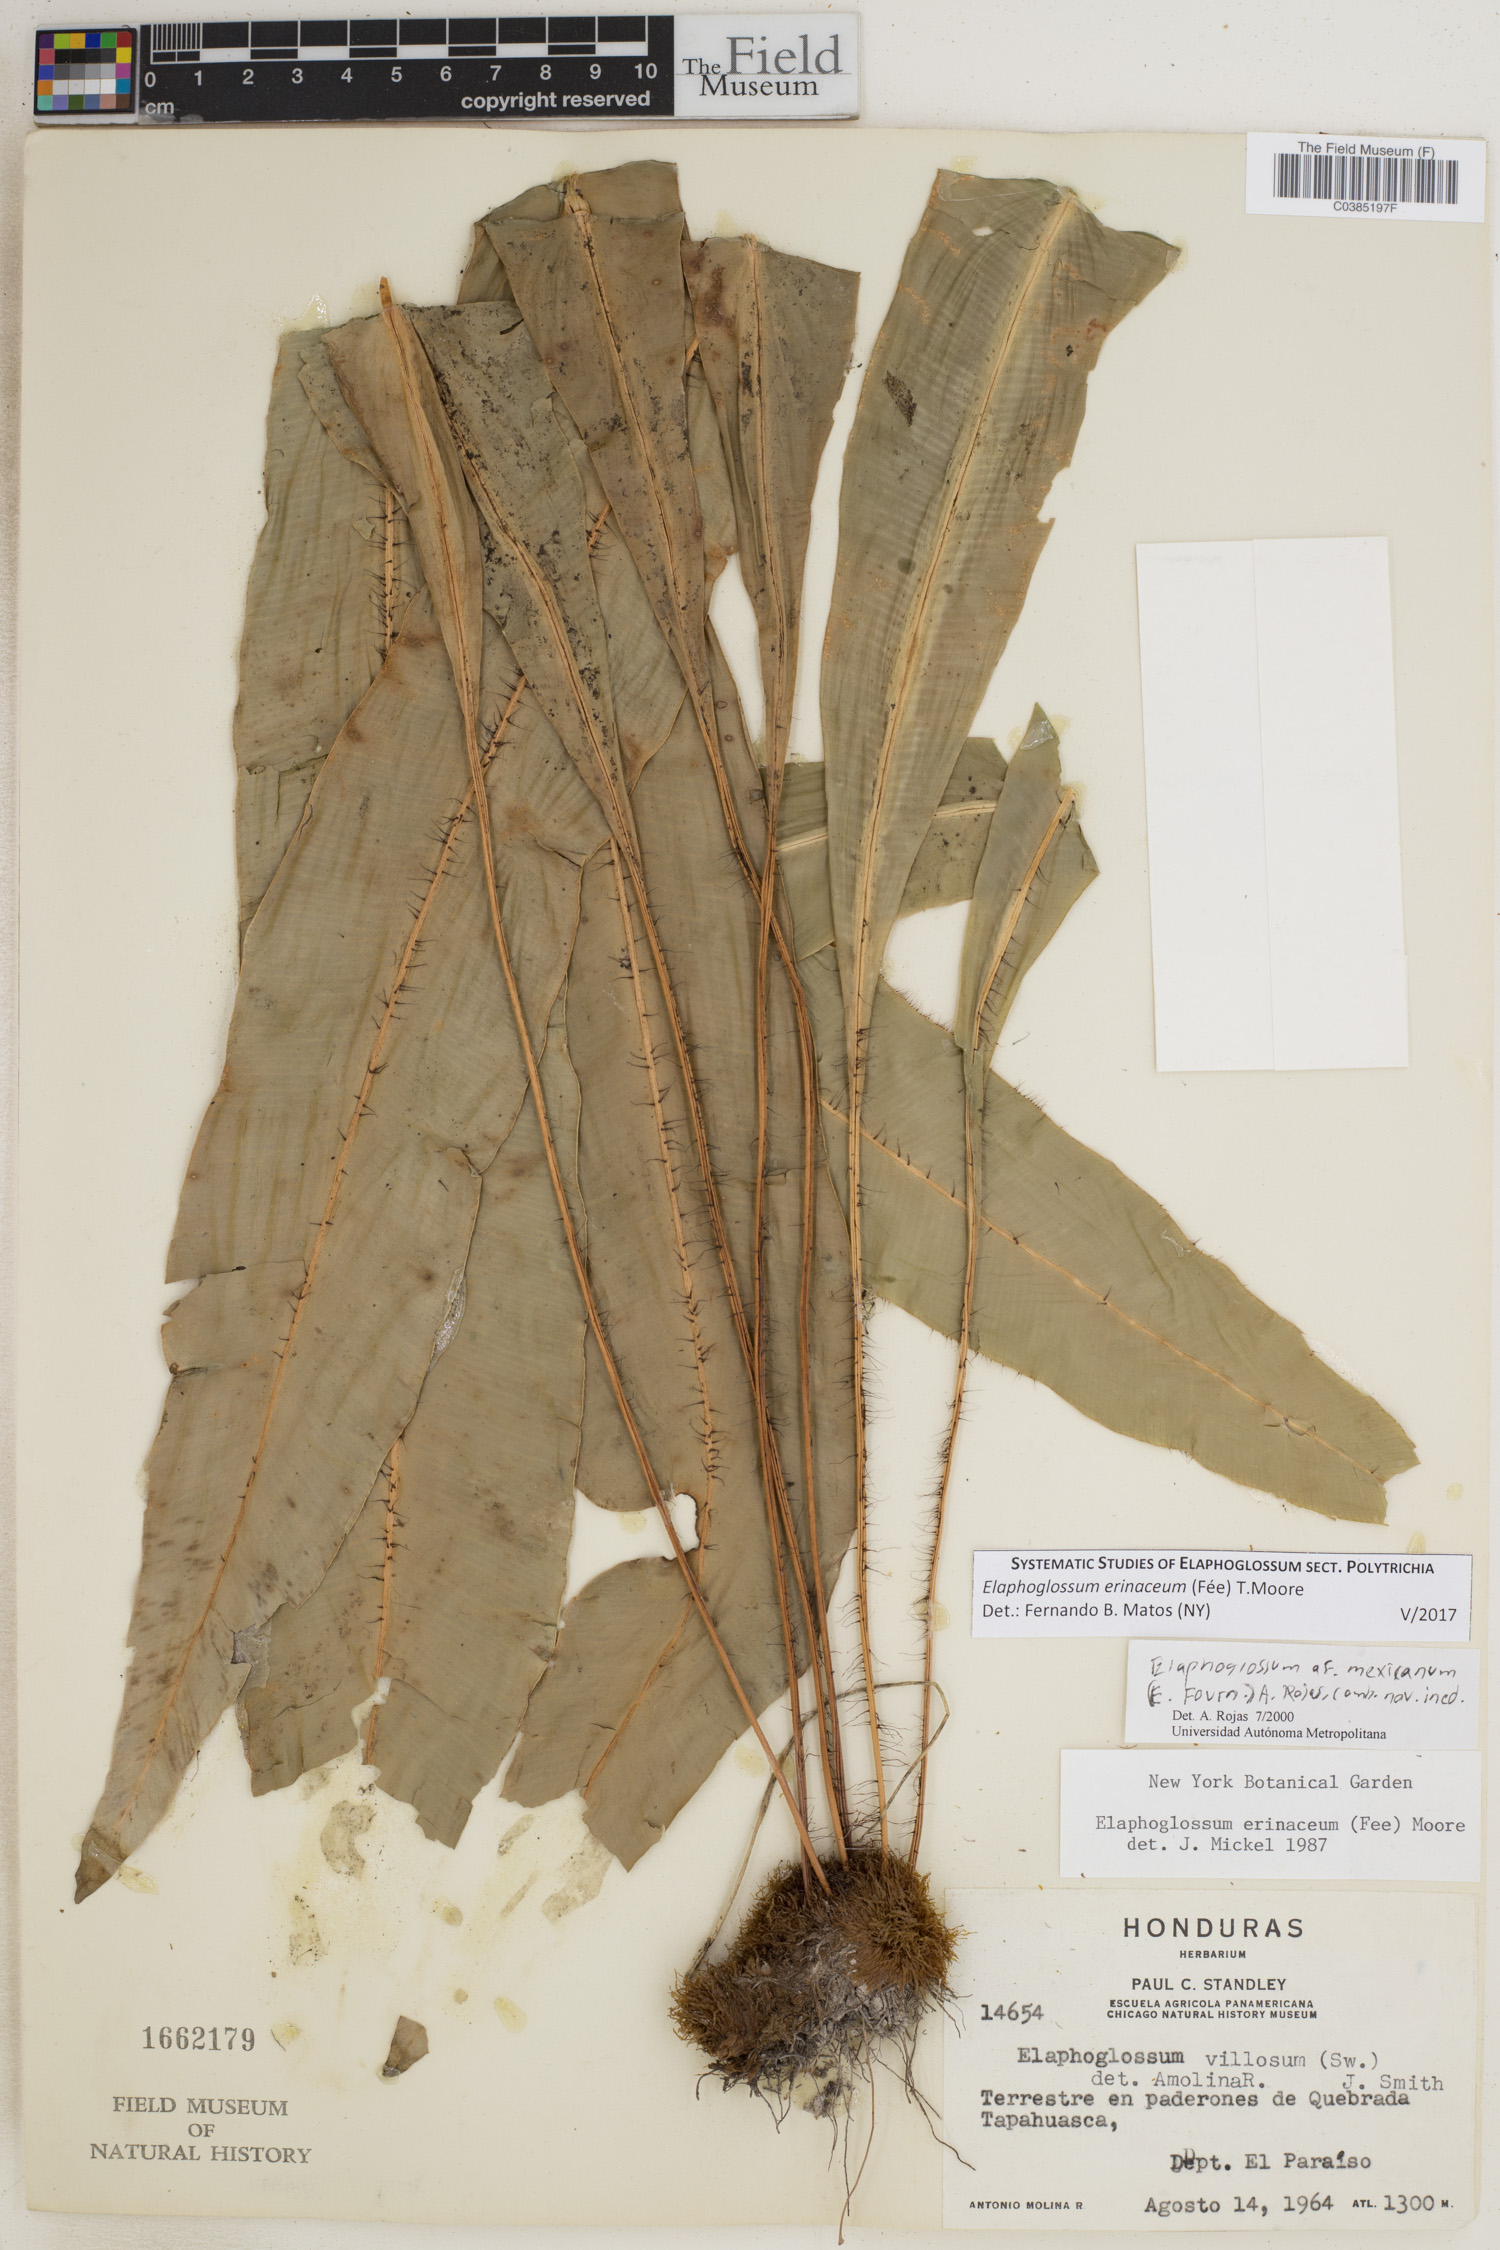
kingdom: Plantae
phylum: Tracheophyta
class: Polypodiopsida
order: Polypodiales
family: Dryopteridaceae
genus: Elaphoglossum
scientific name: Elaphoglossum erinaceum
